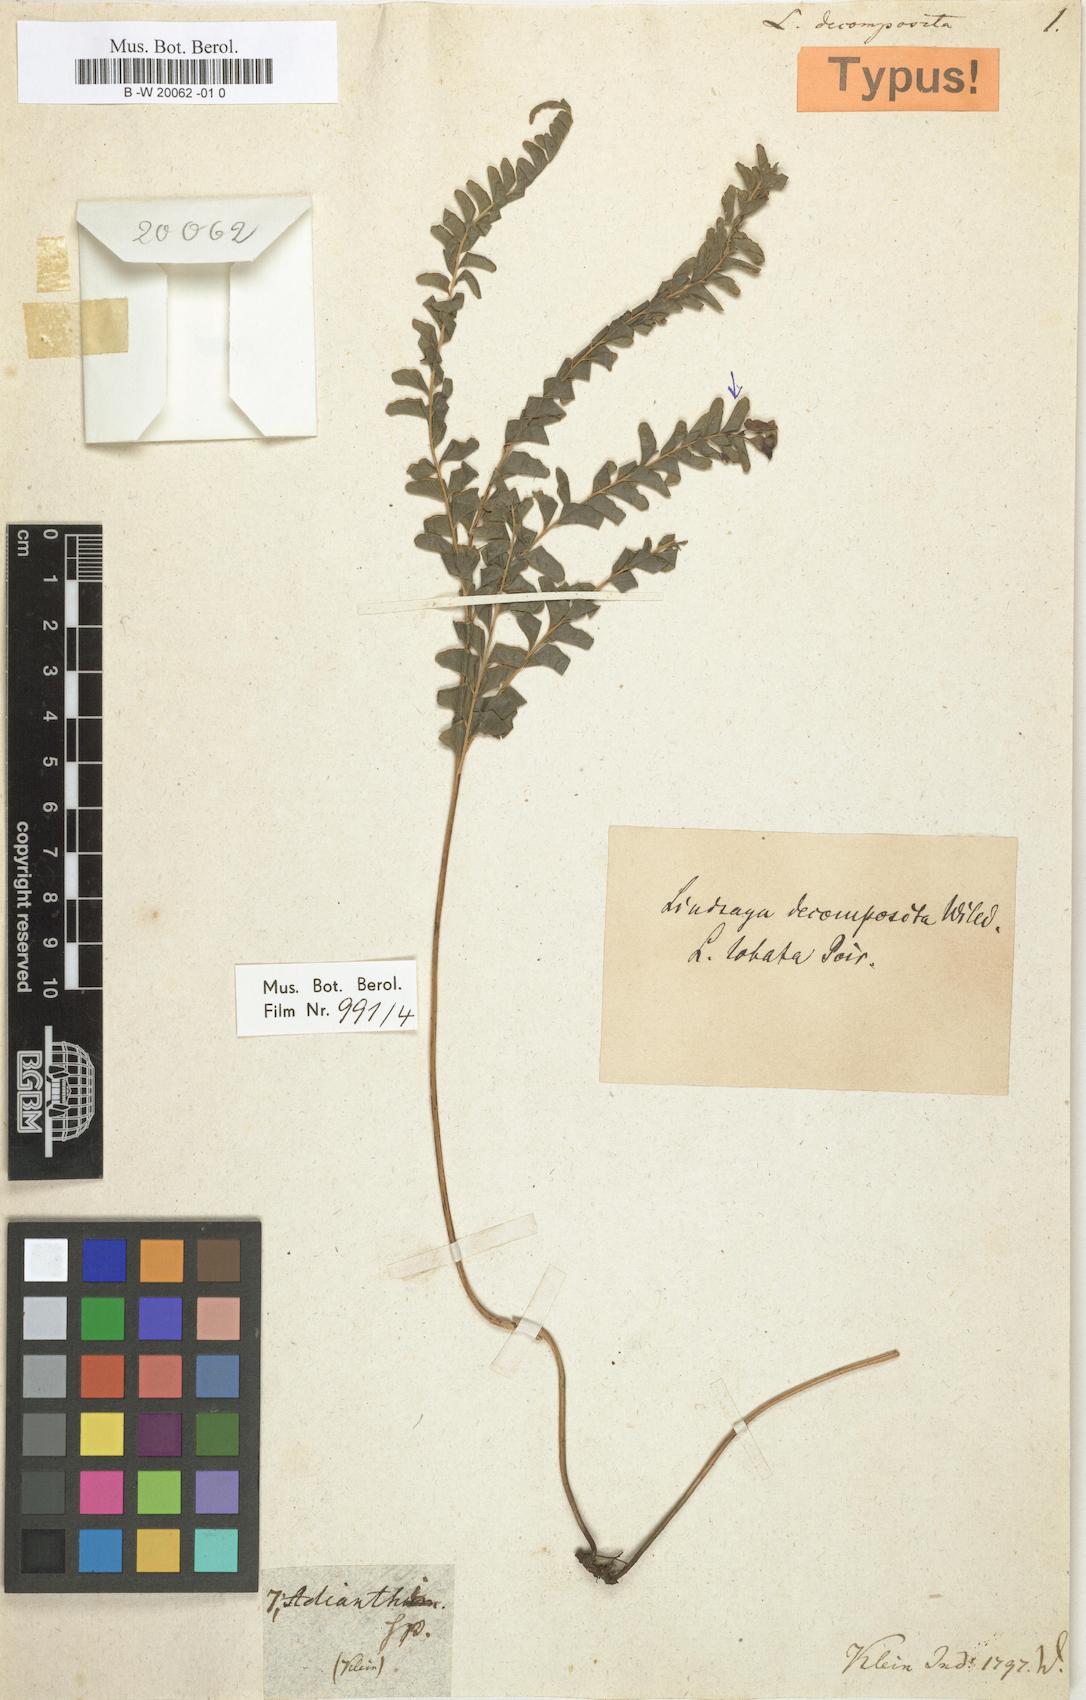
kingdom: Plantae
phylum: Tracheophyta
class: Polypodiopsida
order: Polypodiales
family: Lindsaeaceae
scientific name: Lindsaeaceae
